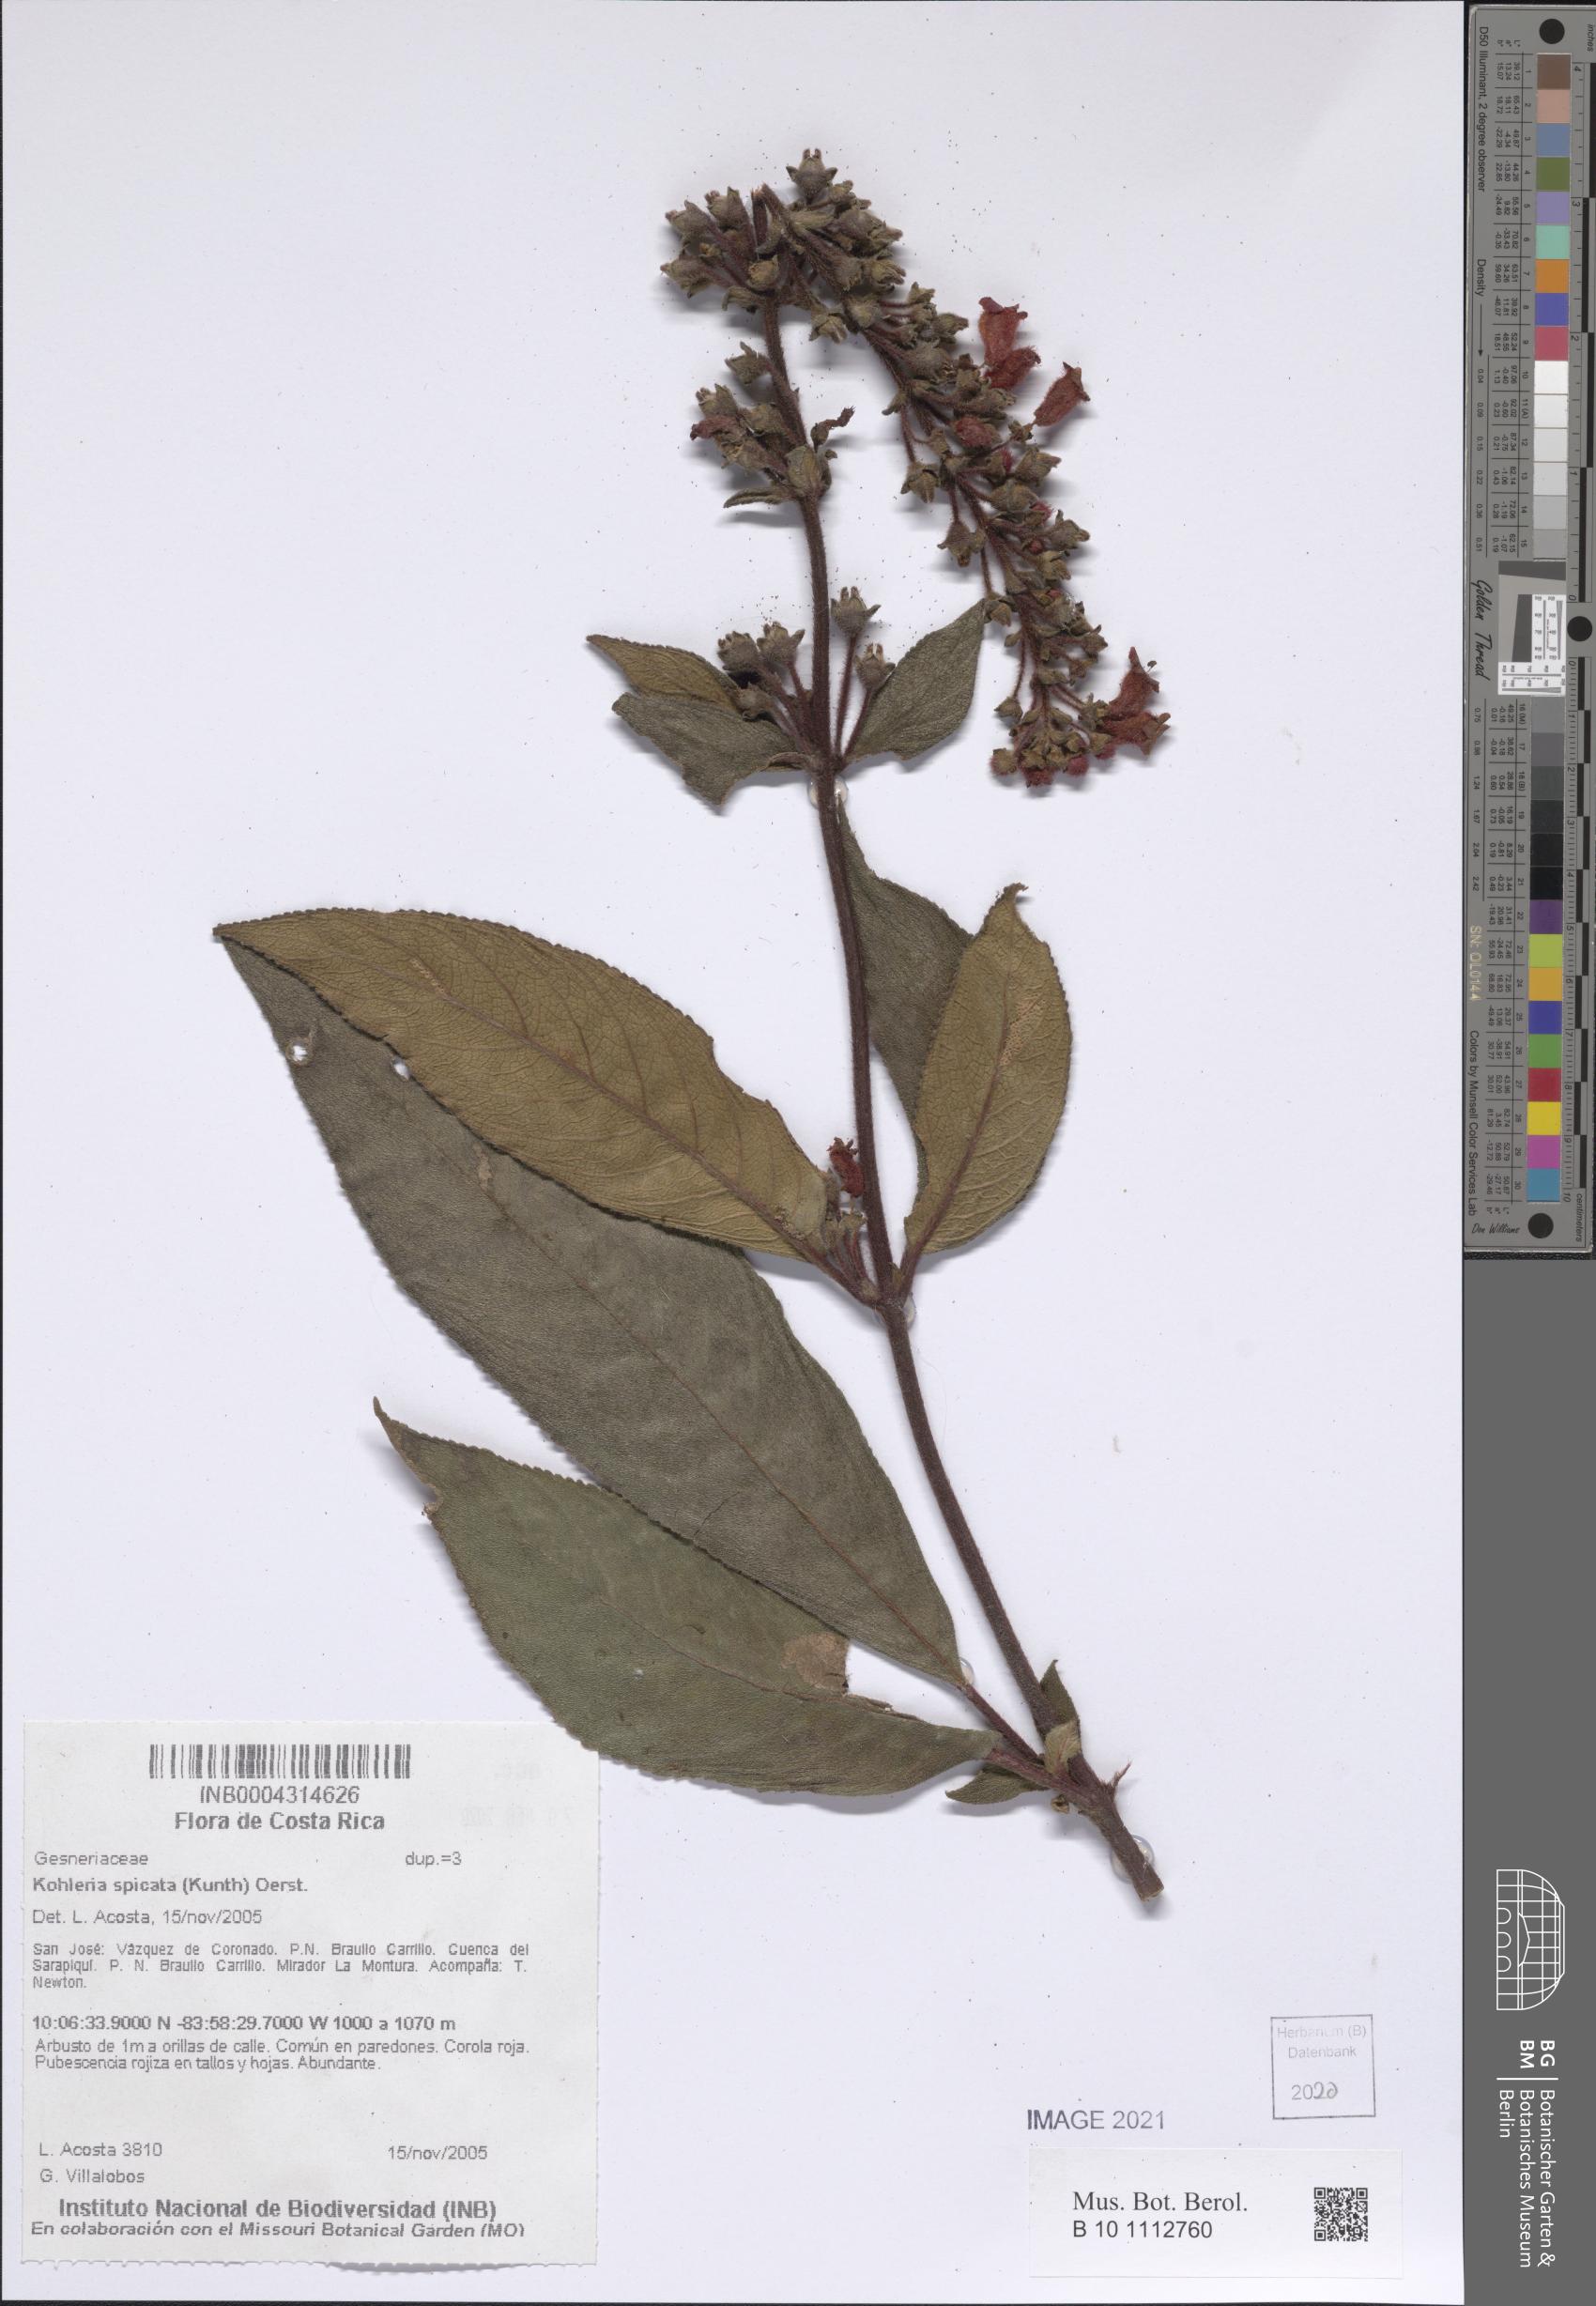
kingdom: Plantae
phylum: Tracheophyta
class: Magnoliopsida
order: Lamiales
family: Gesneriaceae
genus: Kohleria
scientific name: Kohleria spicata
